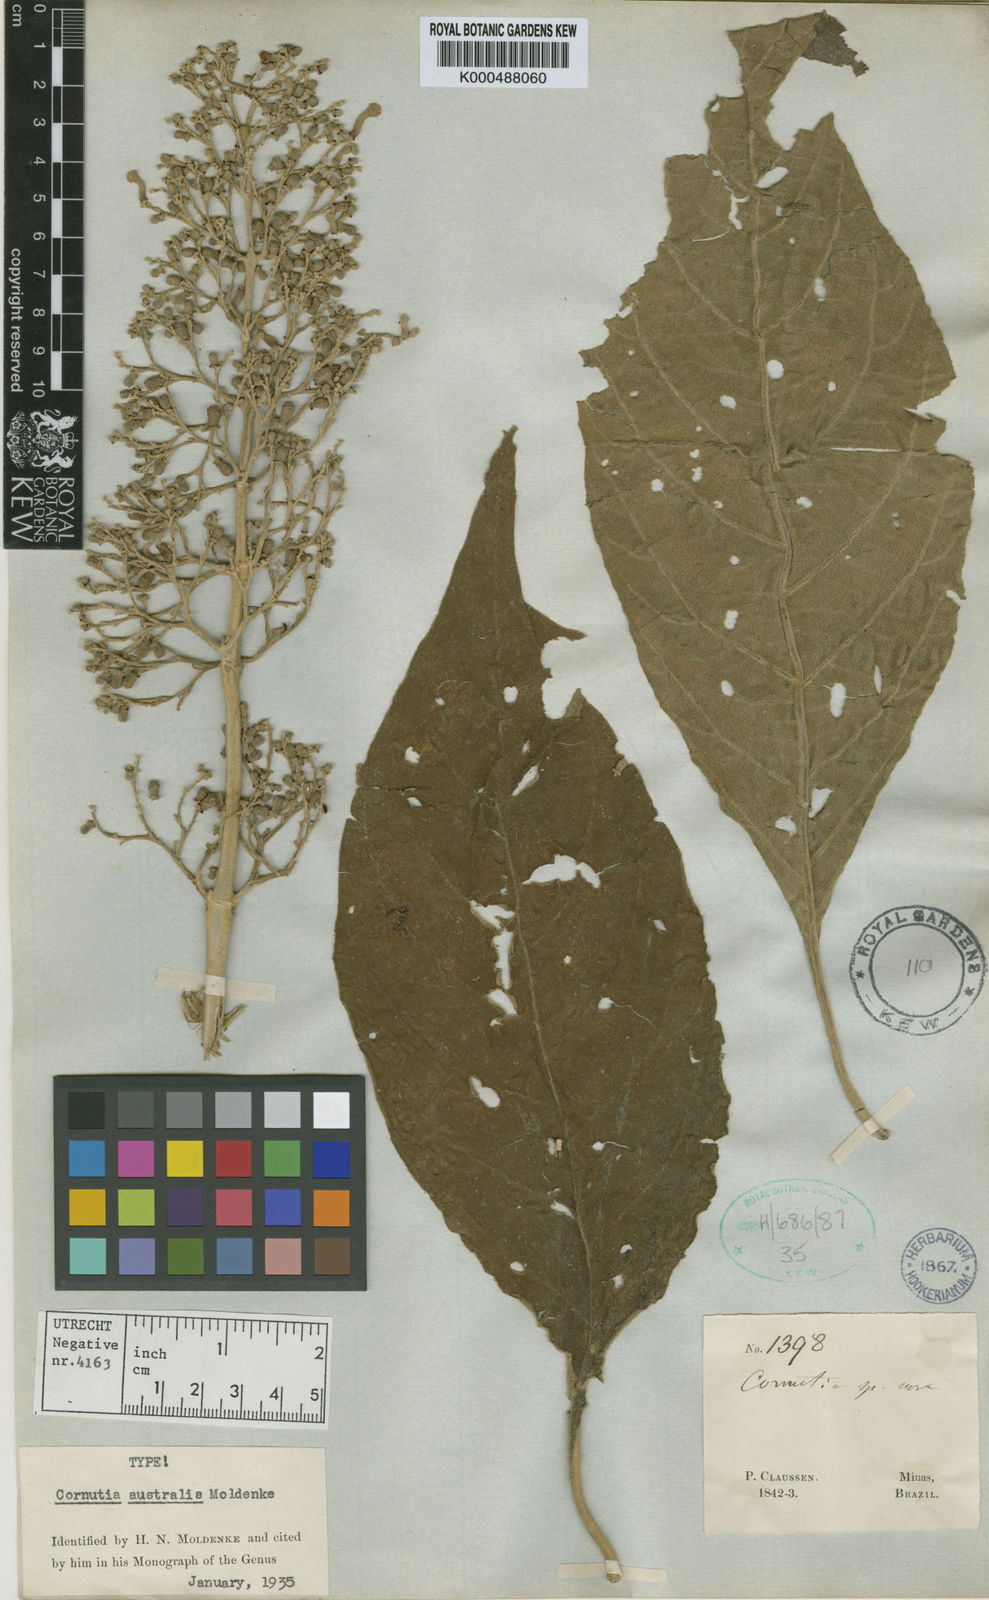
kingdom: Plantae
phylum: Tracheophyta
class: Magnoliopsida
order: Lamiales
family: Lamiaceae
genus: Cornutia
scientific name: Cornutia australis
